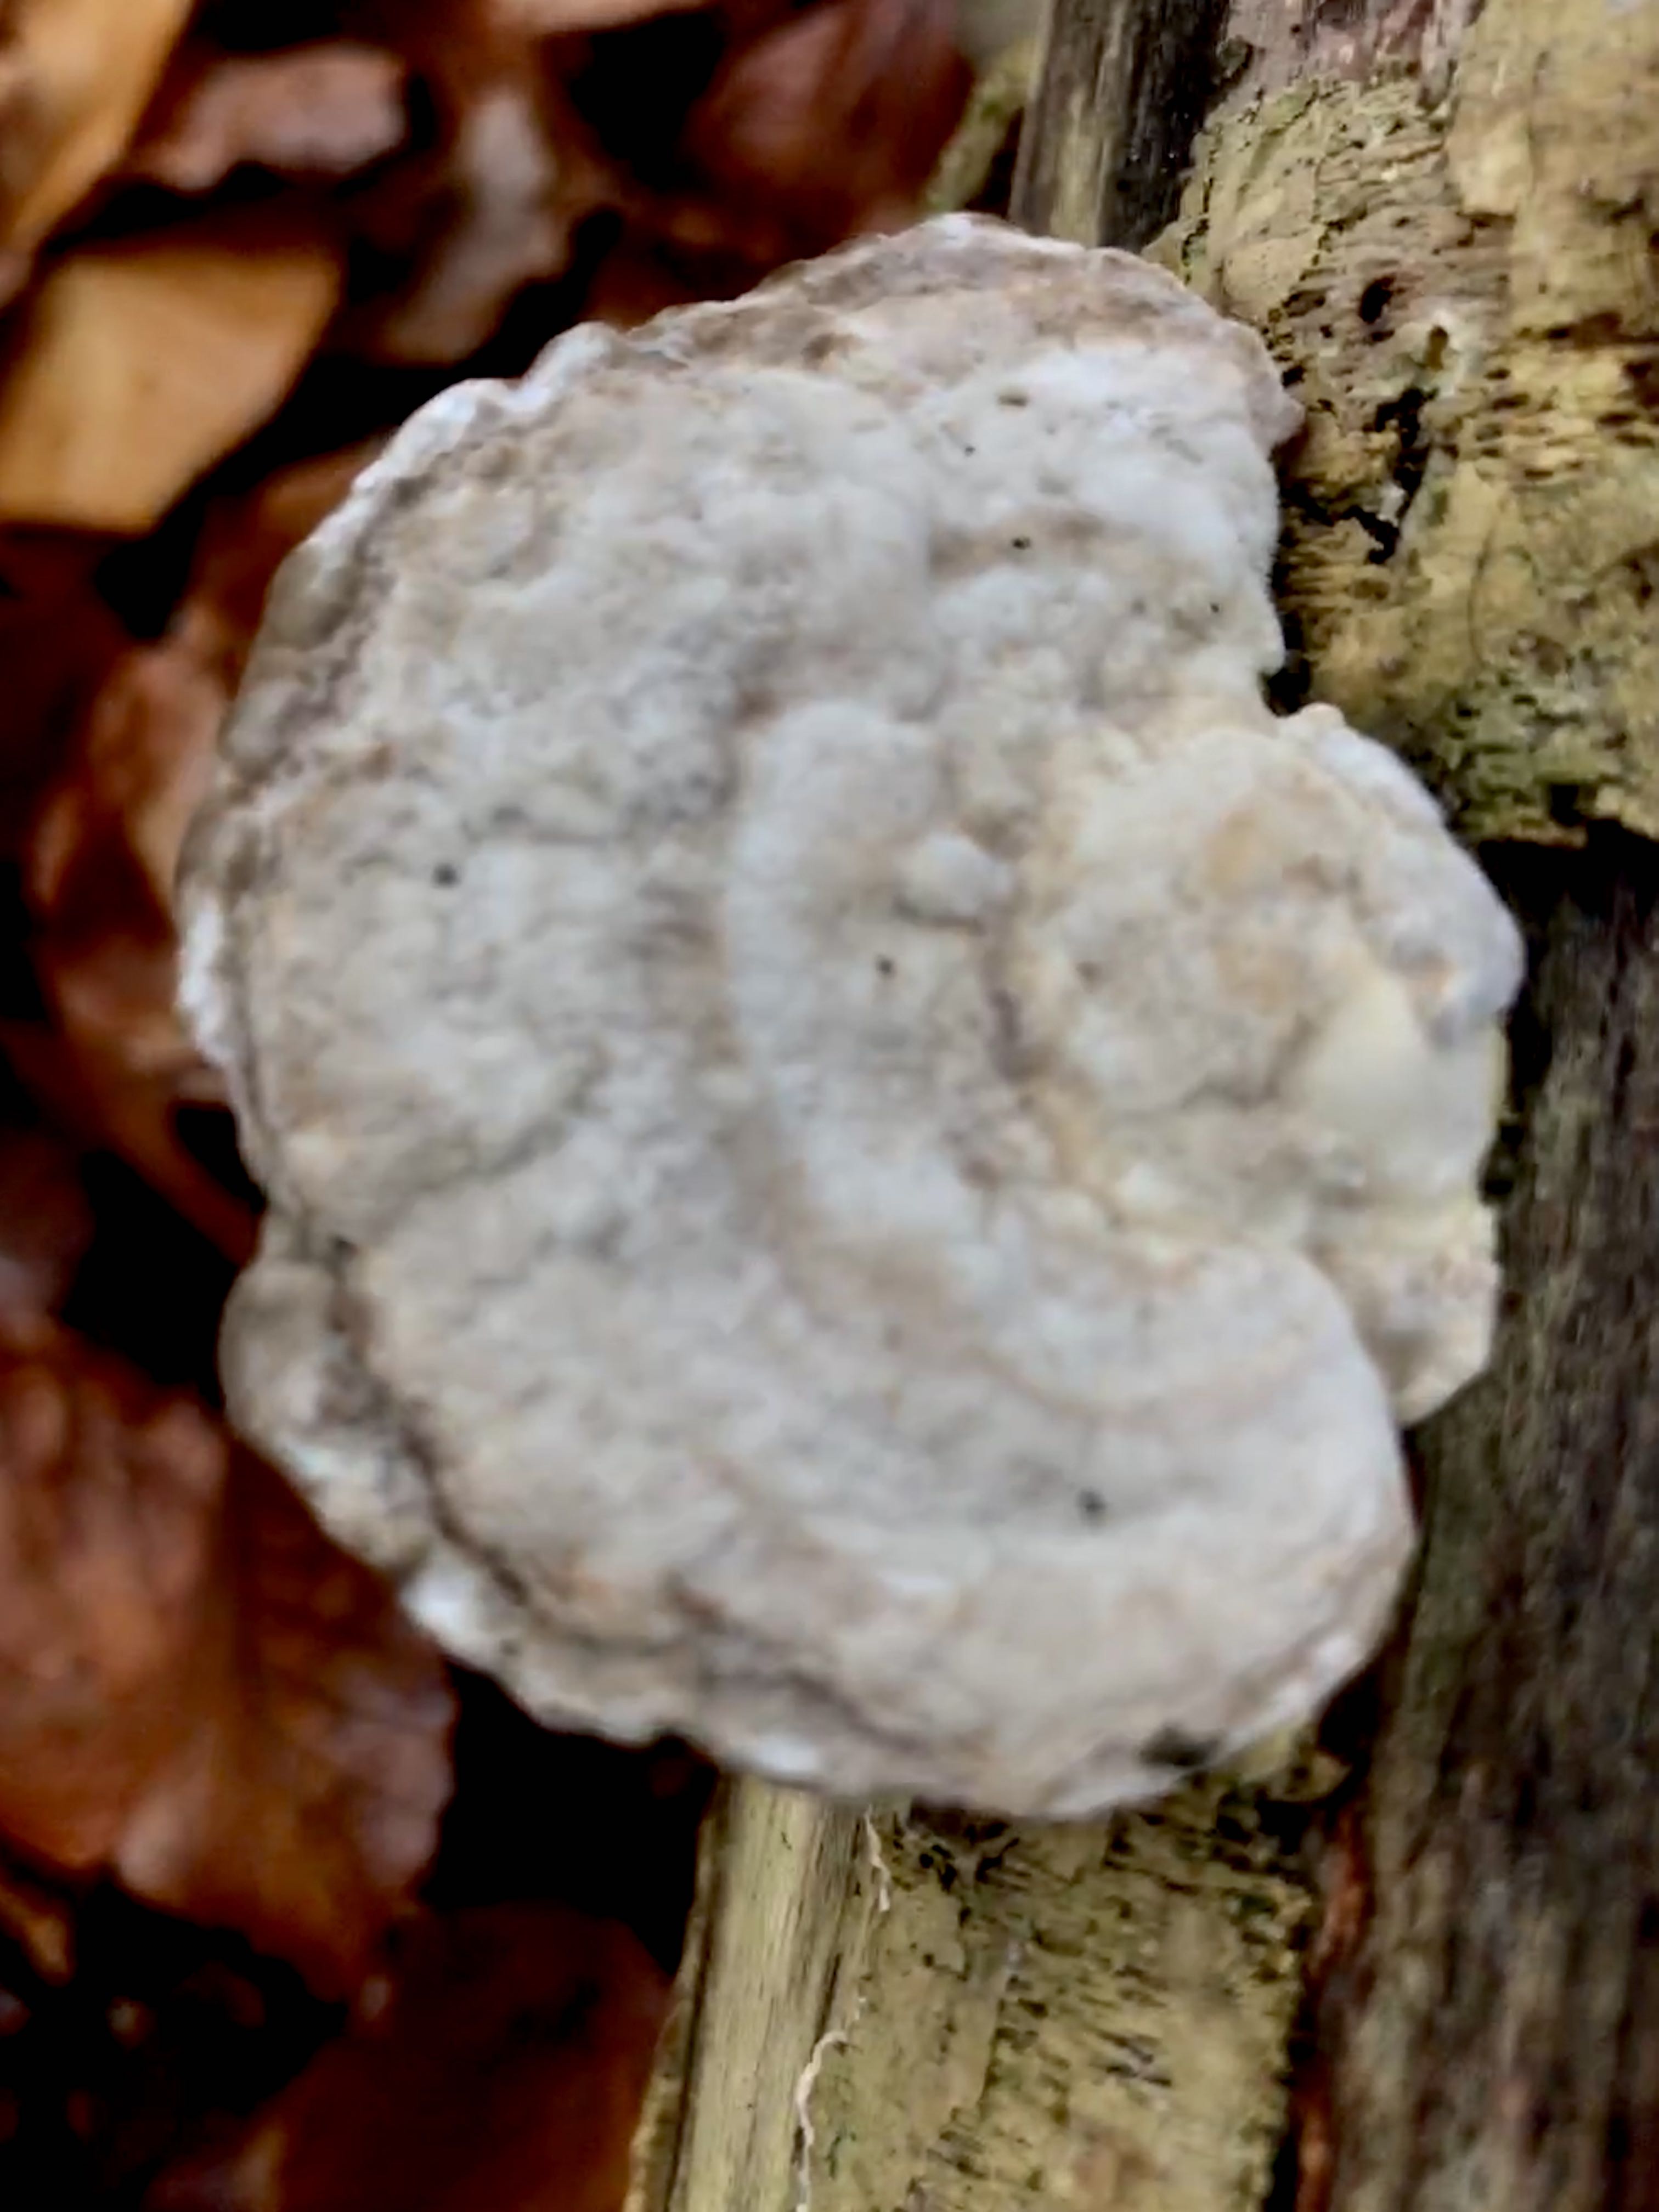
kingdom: Fungi
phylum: Basidiomycota
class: Agaricomycetes
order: Polyporales
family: Polyporaceae
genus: Trametes
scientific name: Trametes gibbosa
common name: puklet læderporesvamp
